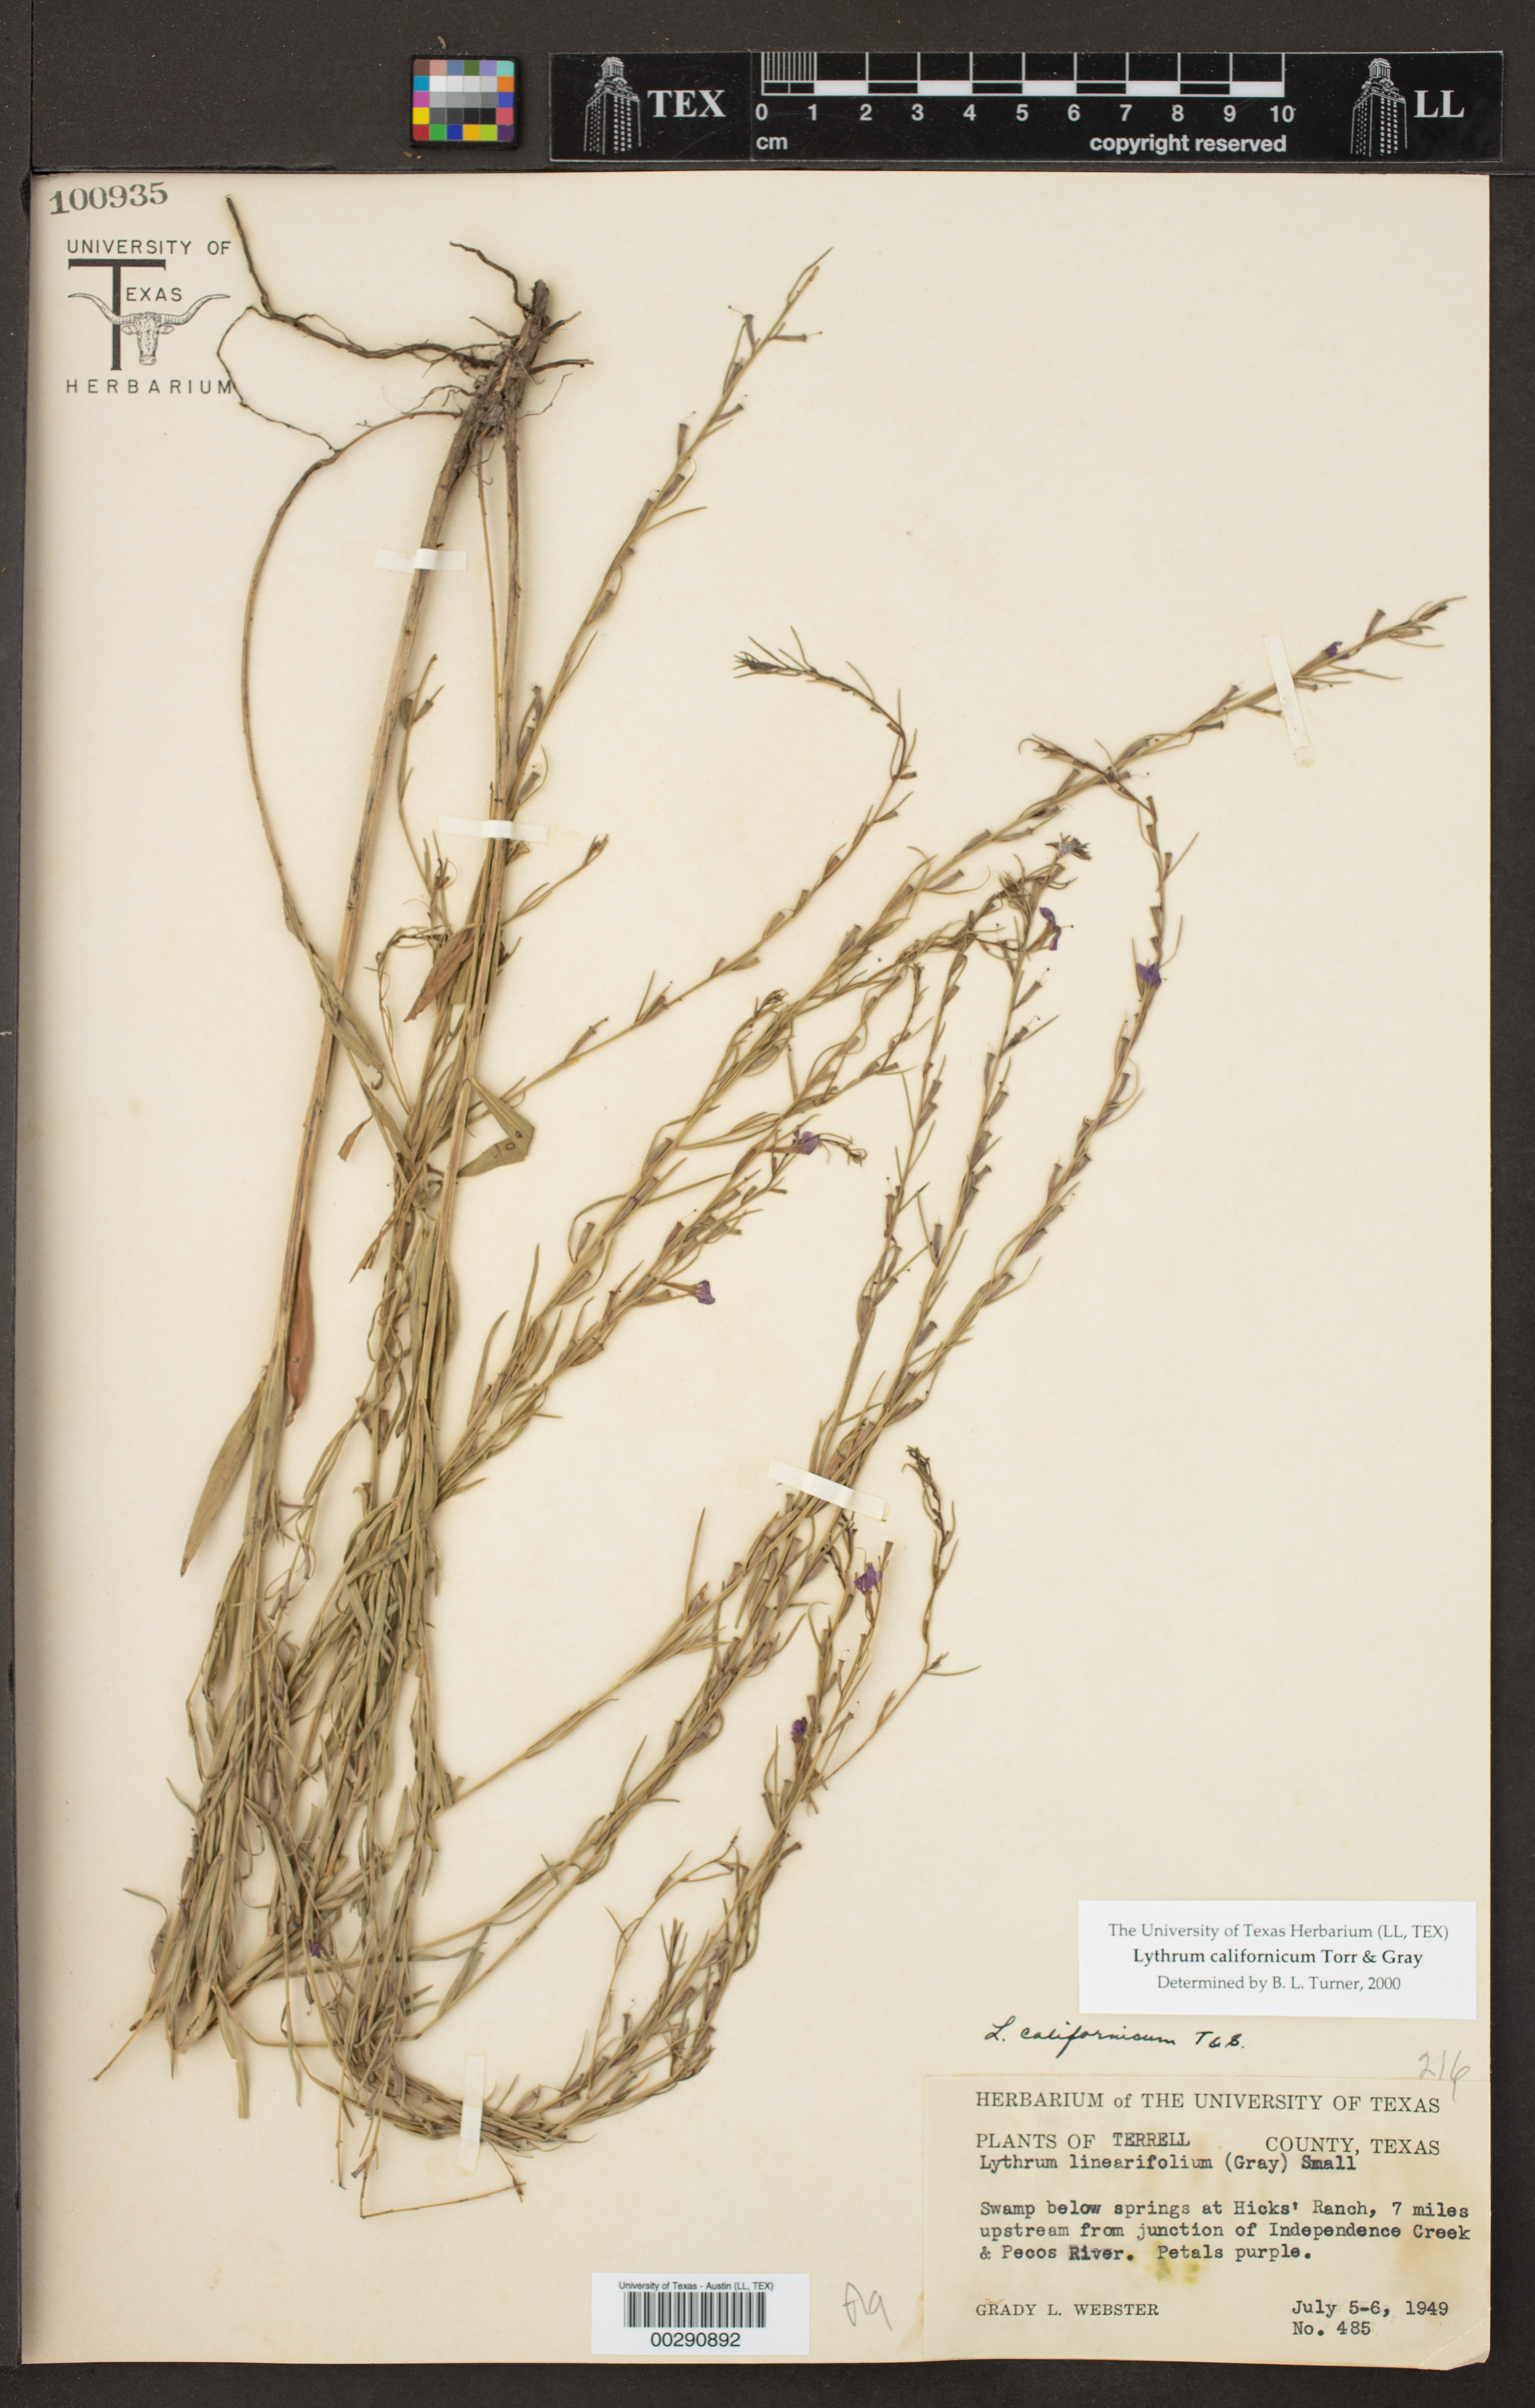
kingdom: Plantae
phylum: Tracheophyta
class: Magnoliopsida
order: Myrtales
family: Lythraceae
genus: Lythrum
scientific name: Lythrum californicum
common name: California loosestrife
